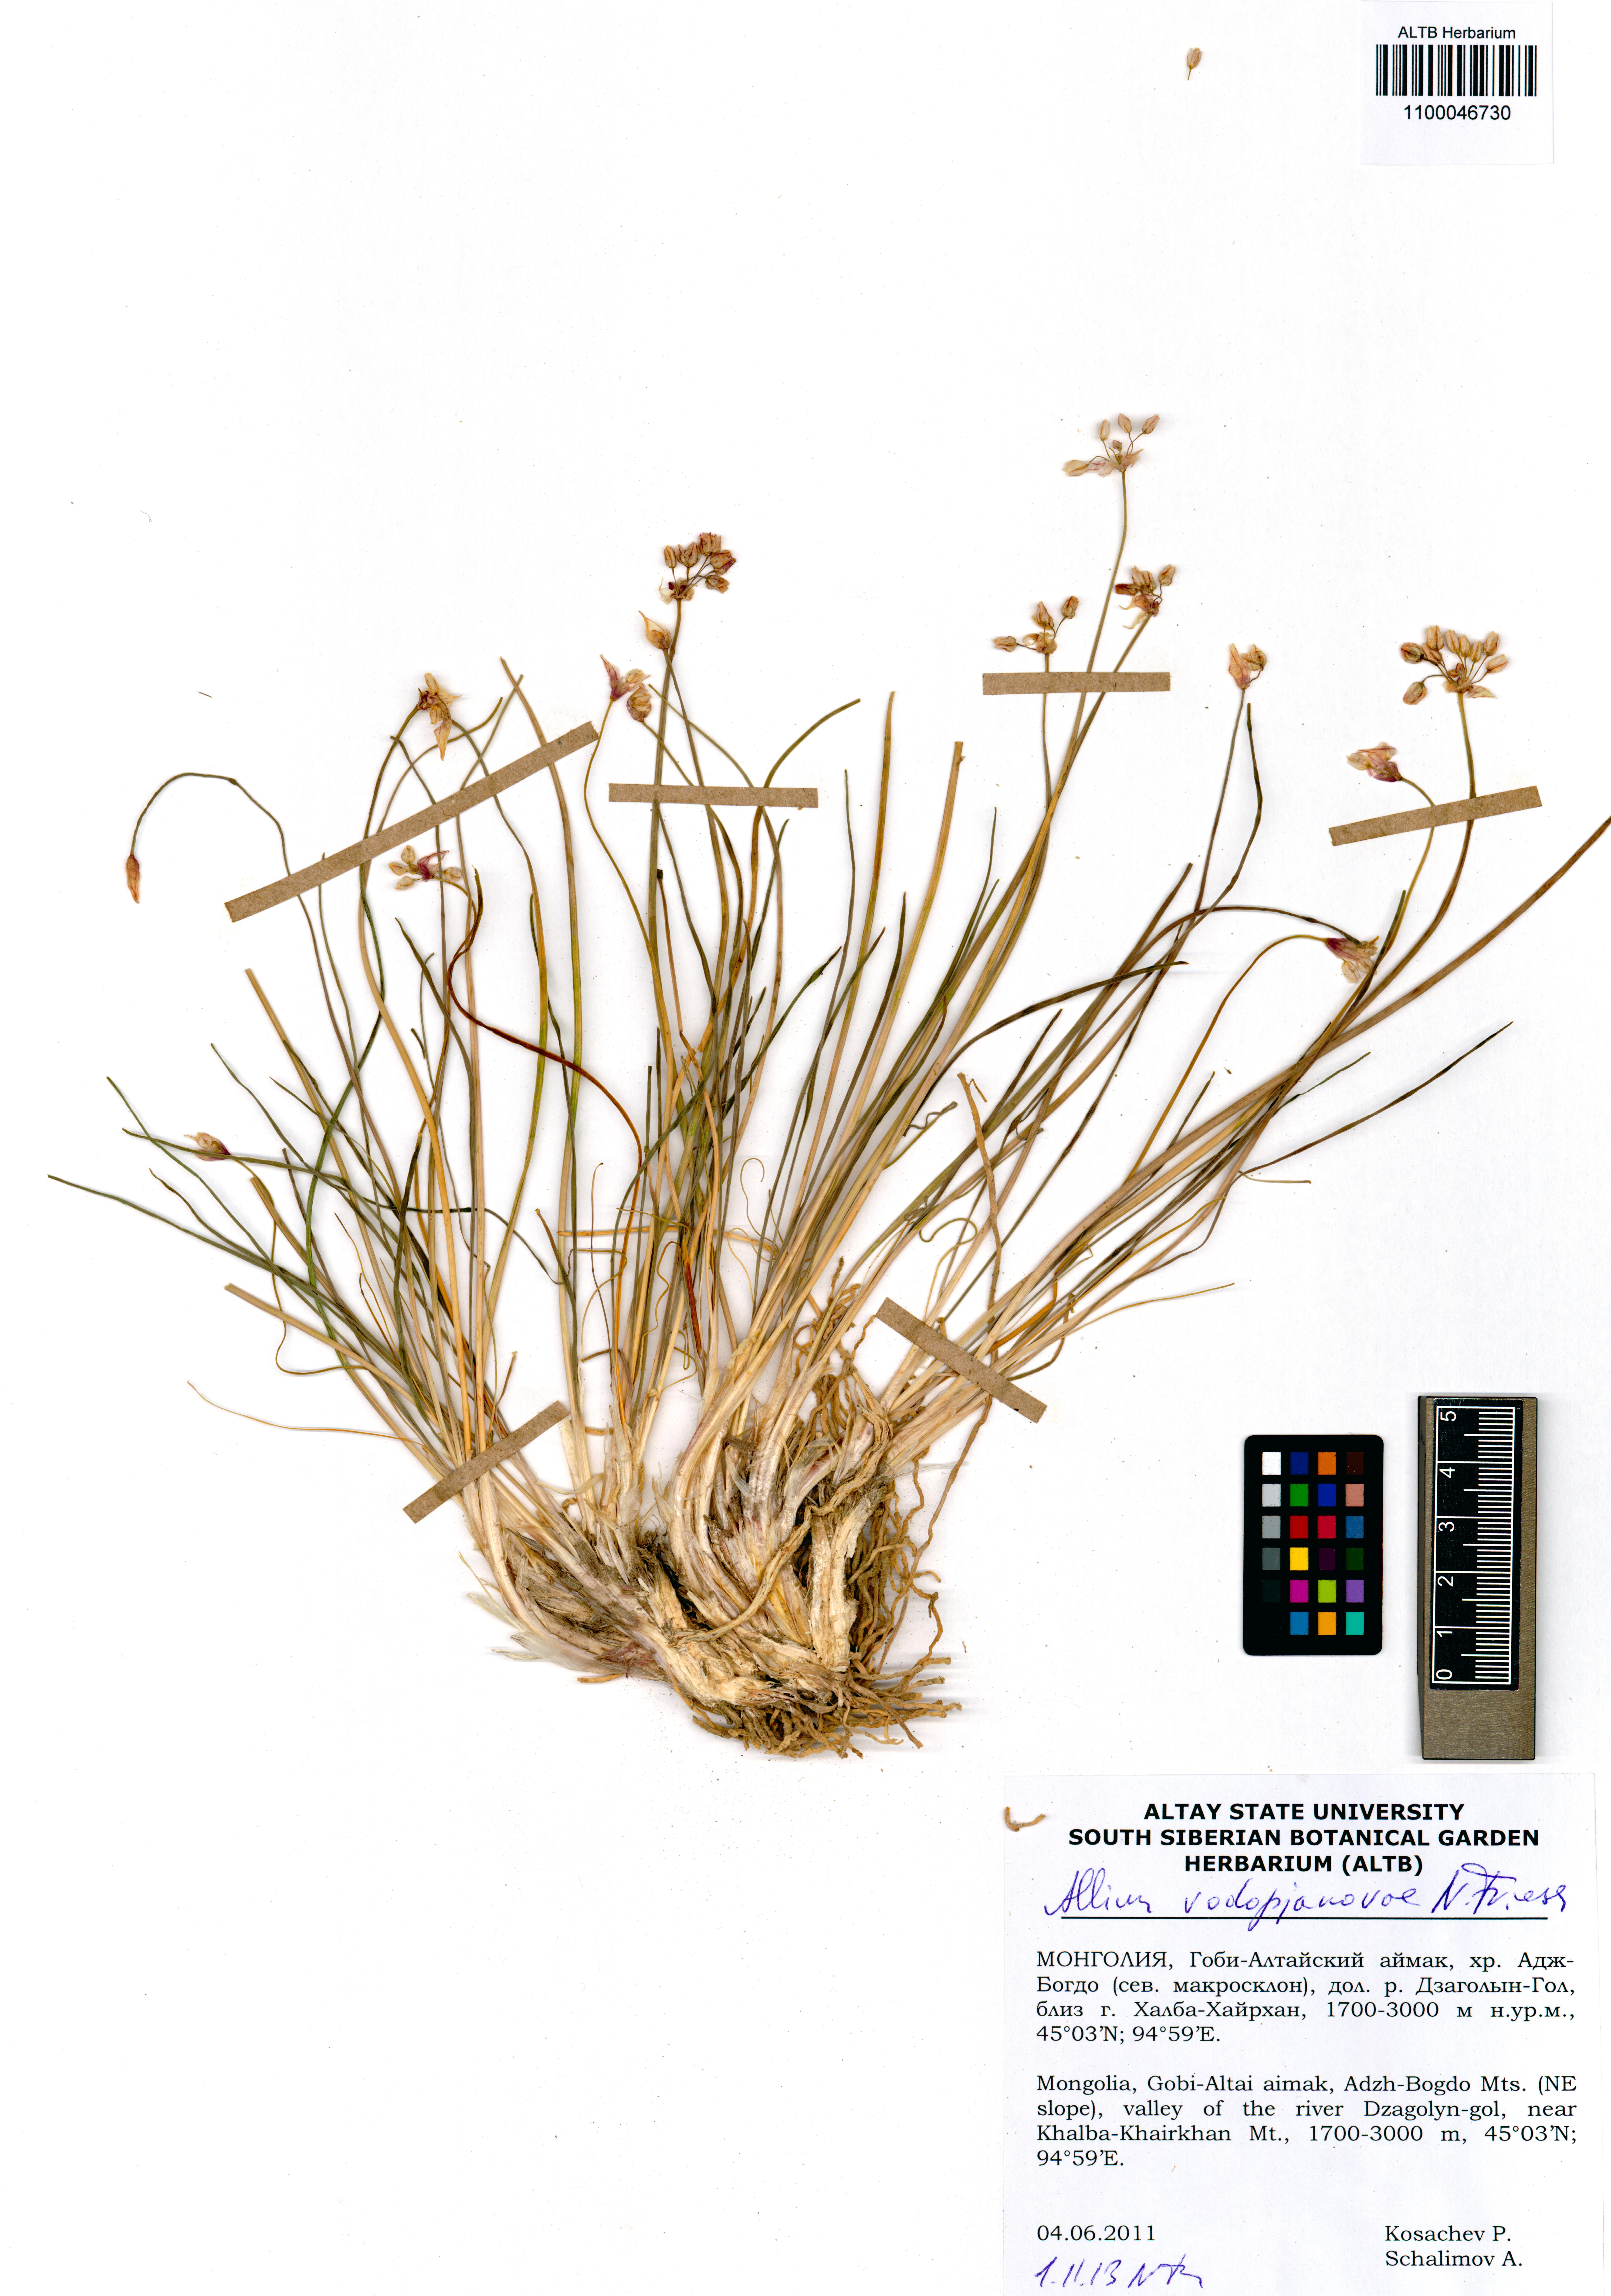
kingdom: Plantae
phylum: Tracheophyta
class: Liliopsida
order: Asparagales
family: Amaryllidaceae
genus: Allium
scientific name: Allium vodopjanovae
